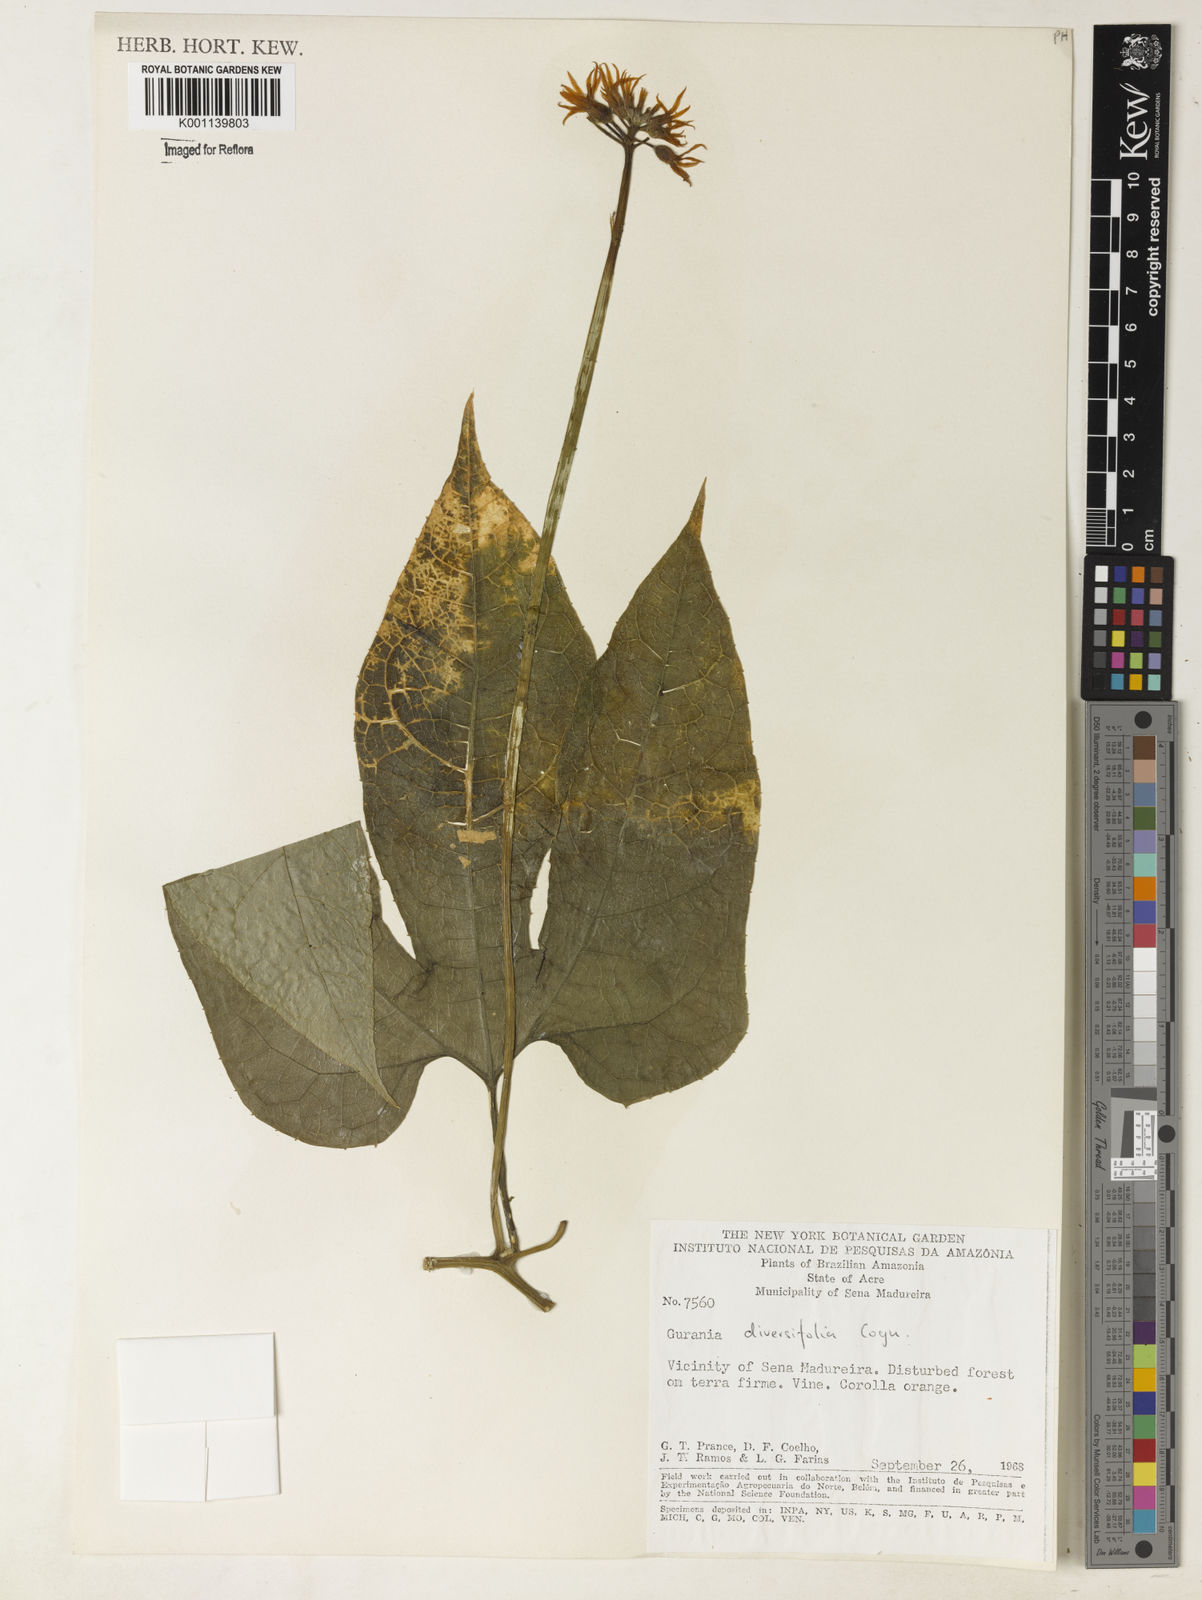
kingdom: Plantae
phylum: Tracheophyta
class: Magnoliopsida
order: Cucurbitales
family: Cucurbitaceae
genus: Gurania
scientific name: Gurania acuminata
